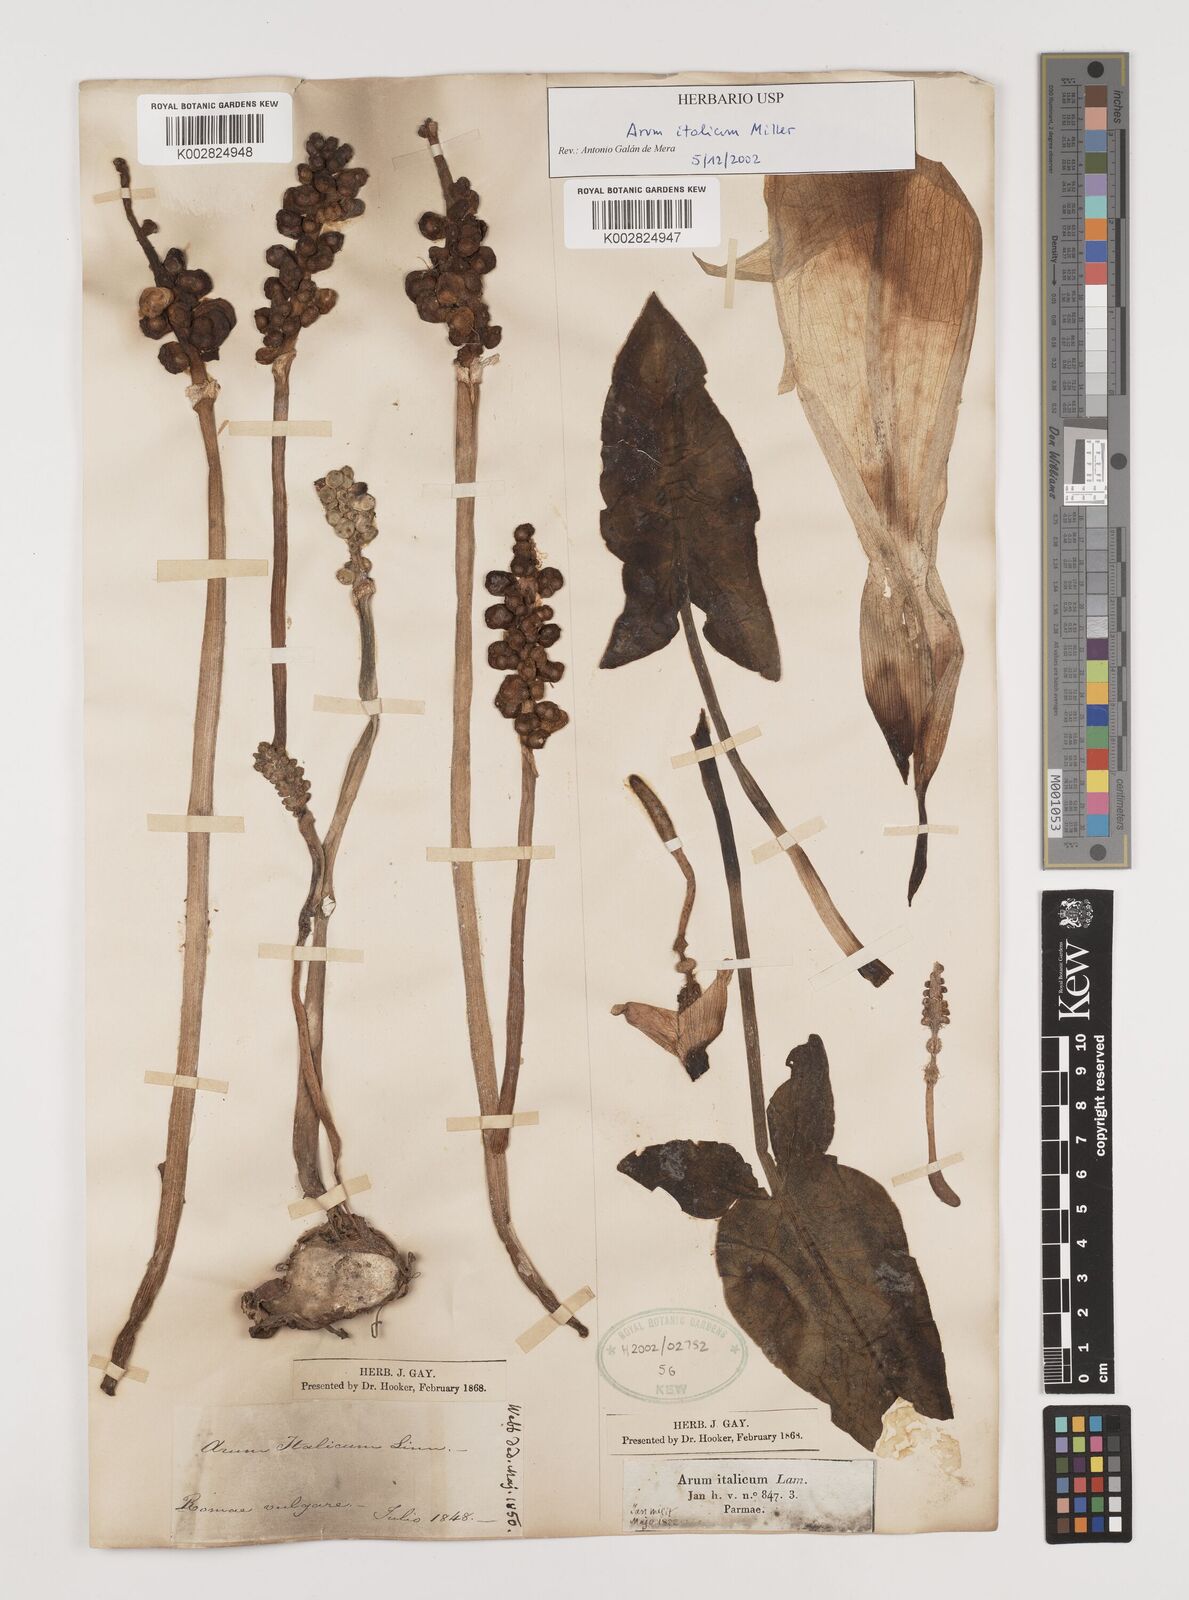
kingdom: Plantae
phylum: Tracheophyta
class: Liliopsida
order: Alismatales
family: Araceae
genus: Arum
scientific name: Arum italicum
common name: Italian lords-and-ladies
